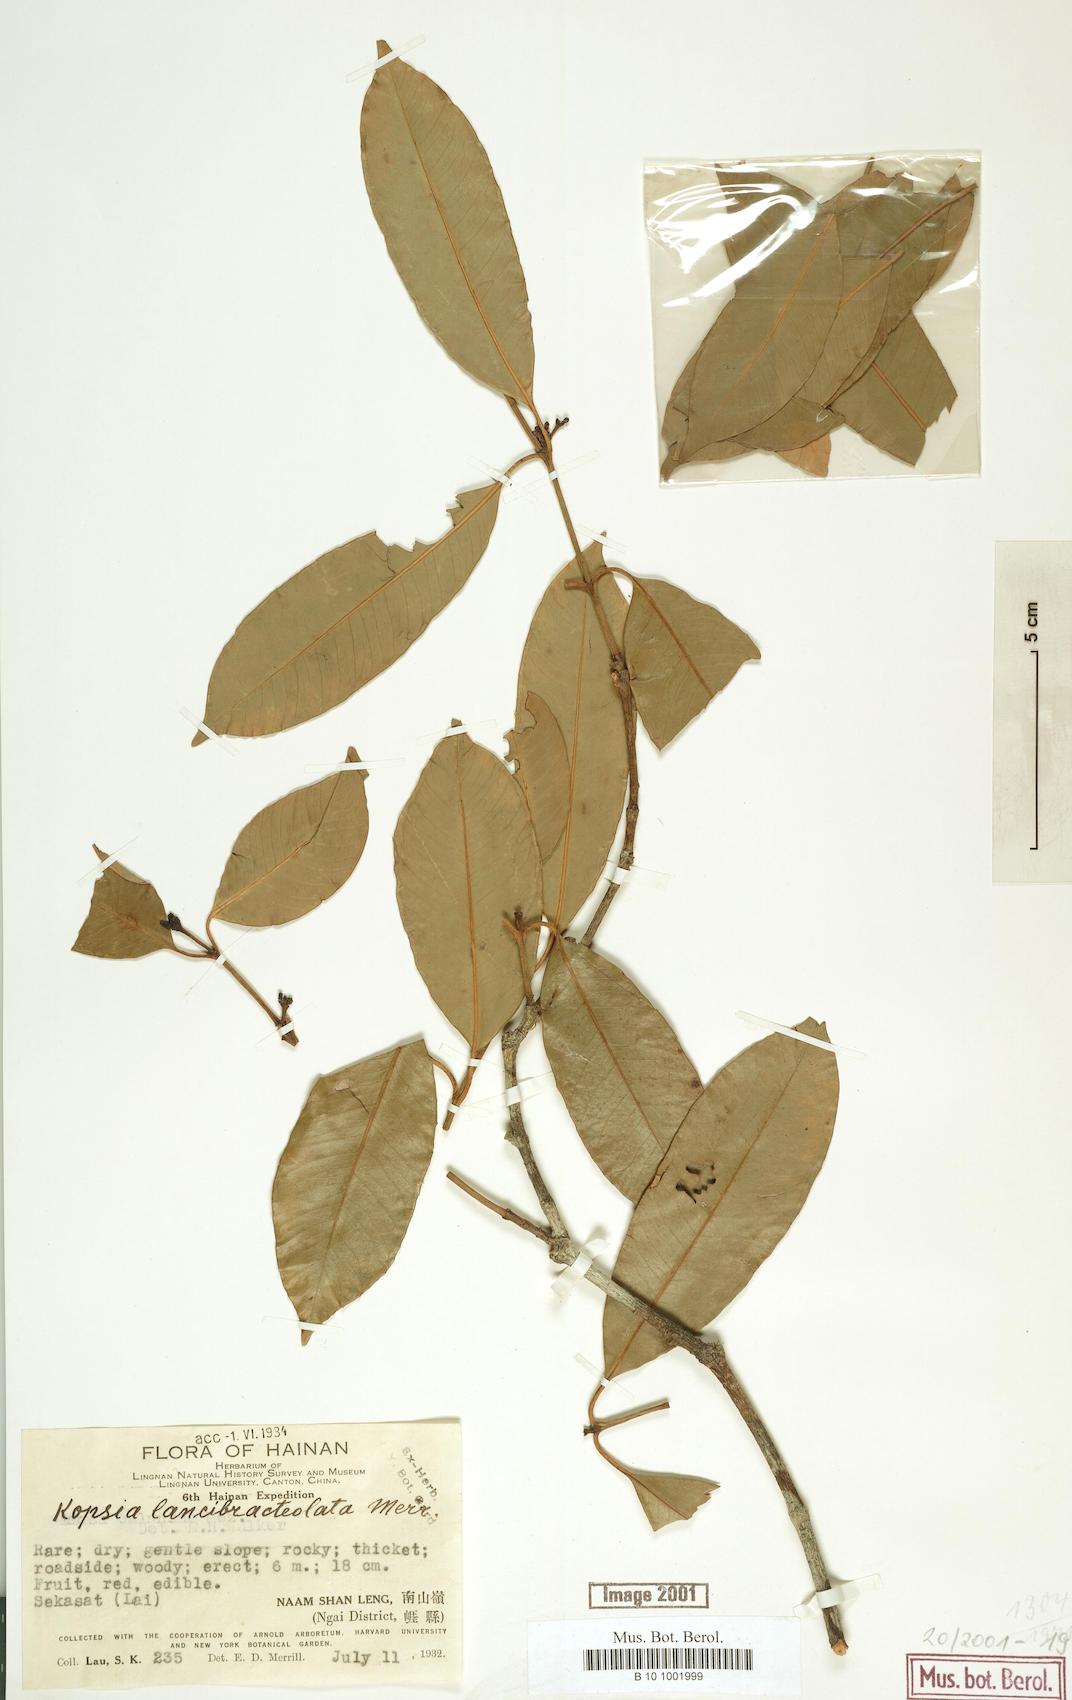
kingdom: Plantae
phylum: Tracheophyta
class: Magnoliopsida
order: Gentianales
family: Apocynaceae
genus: Kopsia
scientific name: Kopsia arborea
